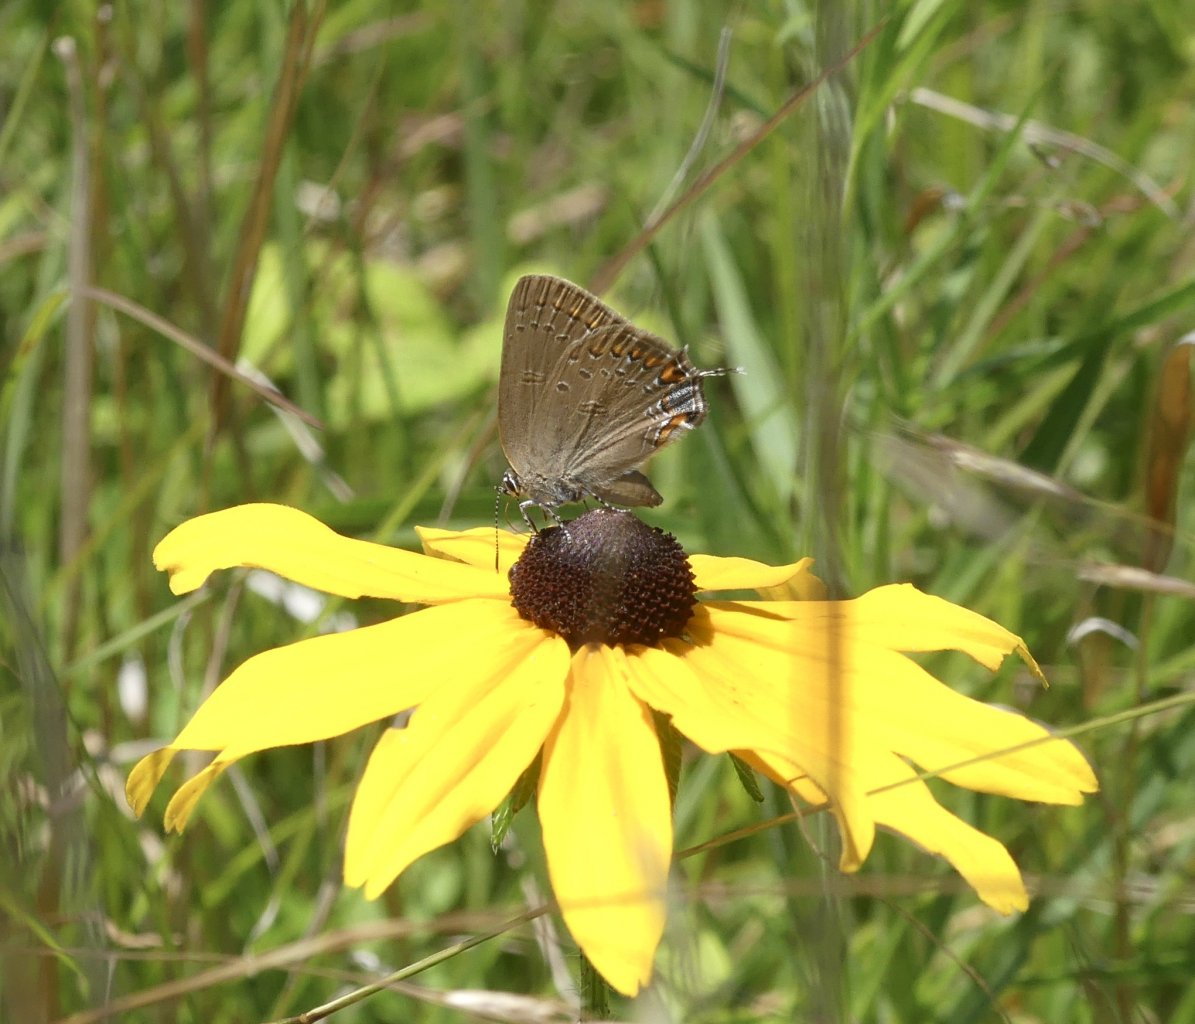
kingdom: Animalia
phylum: Arthropoda
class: Insecta
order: Lepidoptera
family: Lycaenidae
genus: Satyrium
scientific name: Satyrium edwardsii
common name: Edwards' Hairstreak
